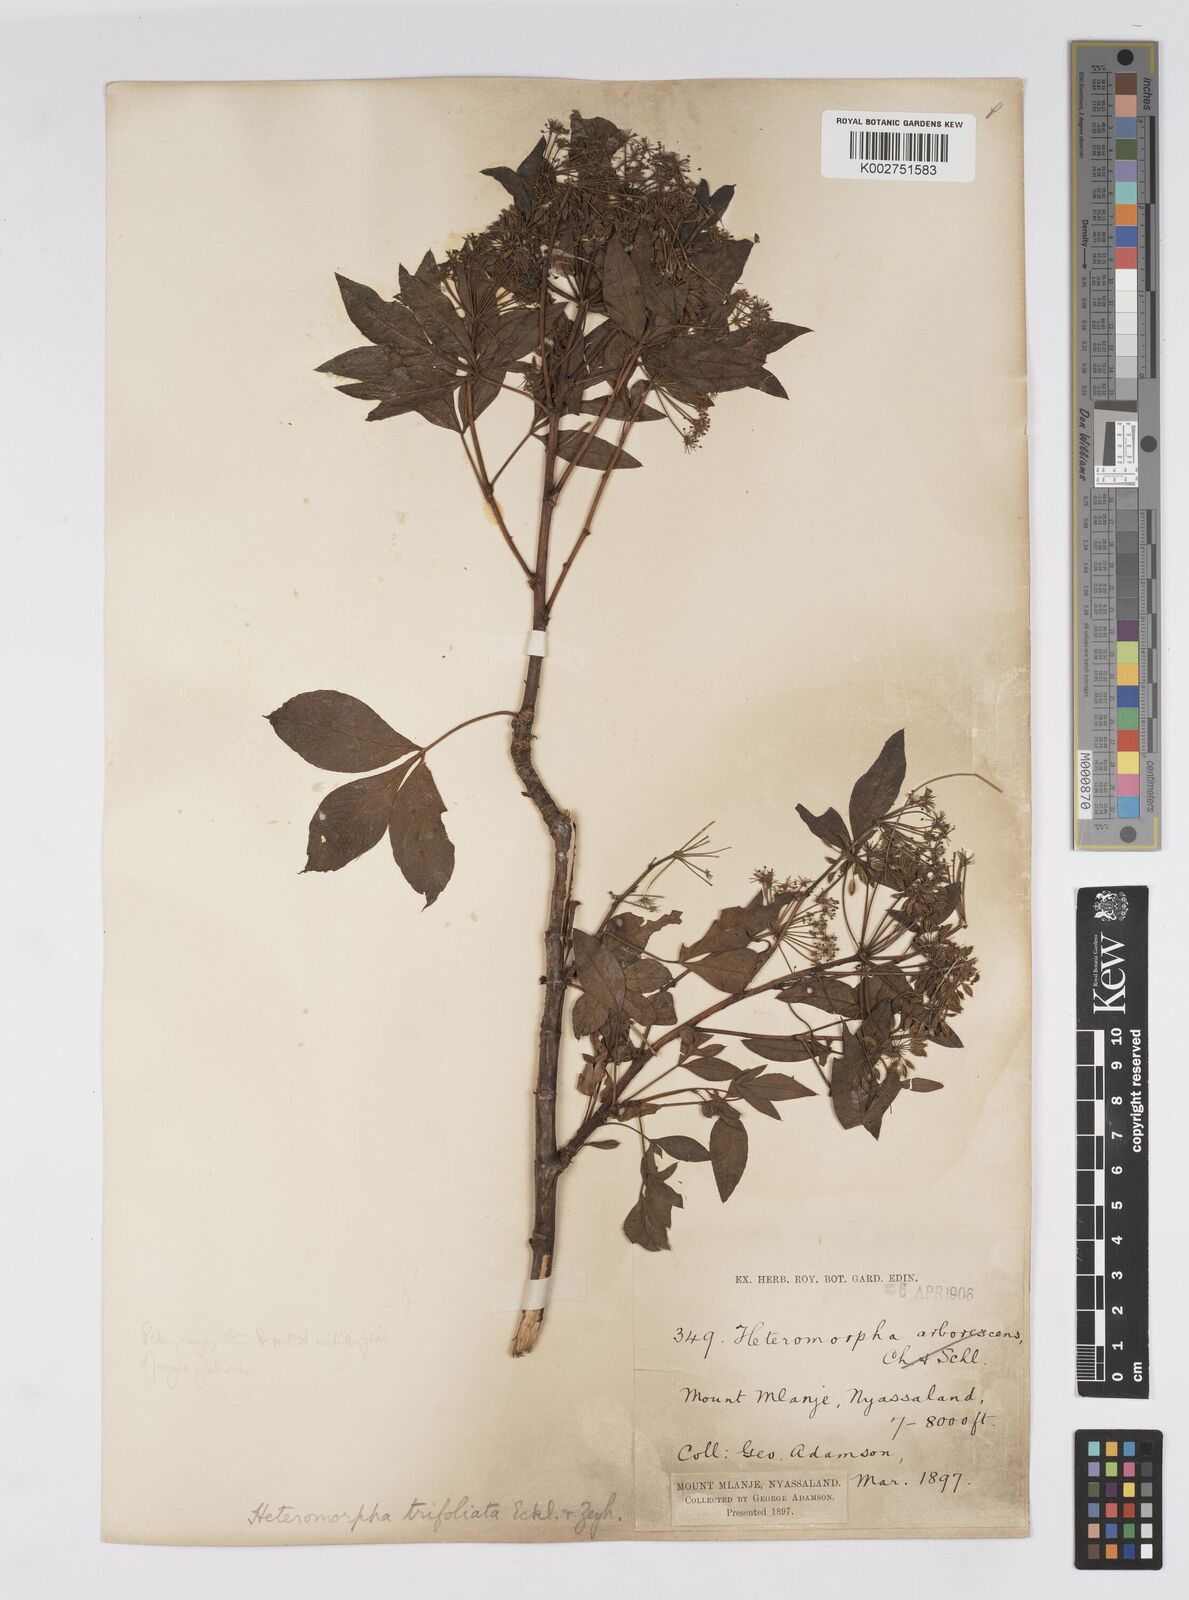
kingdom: Plantae
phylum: Tracheophyta
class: Magnoliopsida
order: Apiales
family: Apiaceae
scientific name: Apiaceae
